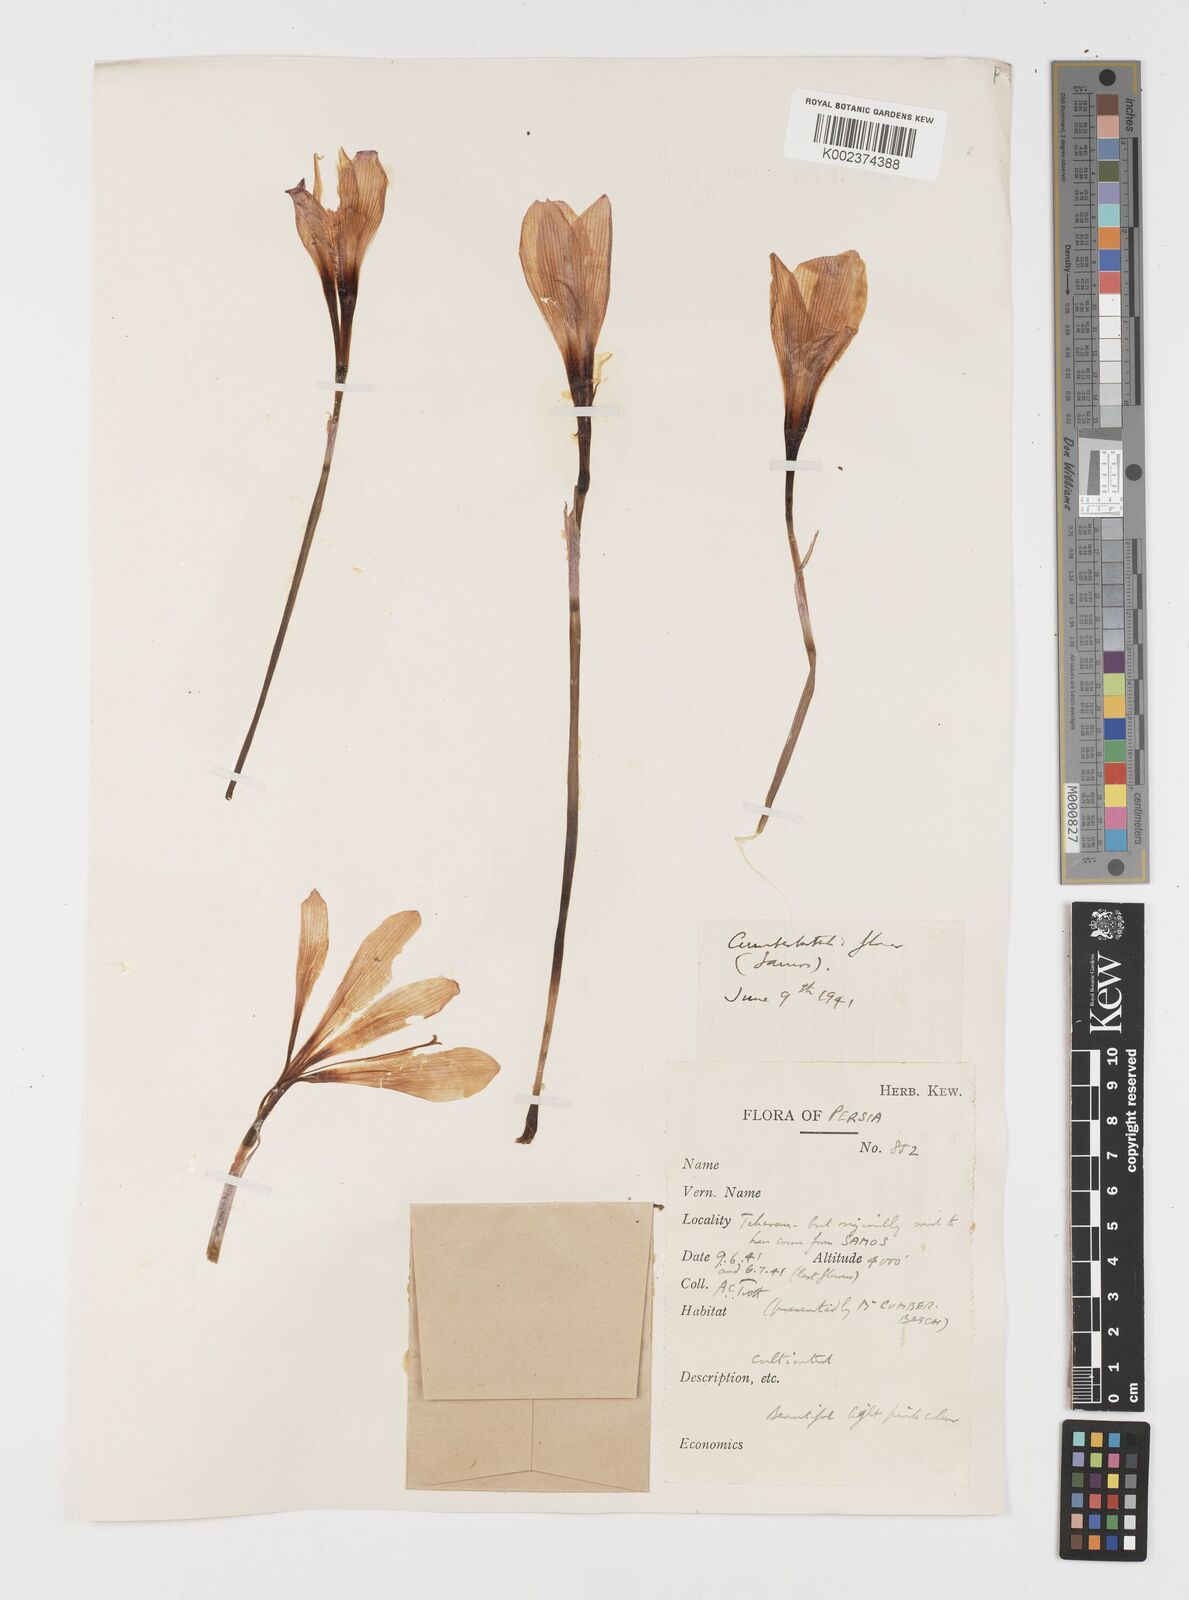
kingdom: Plantae
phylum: Tracheophyta
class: Liliopsida
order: Liliales
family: Colchicaceae
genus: Colchicum
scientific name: Colchicum
